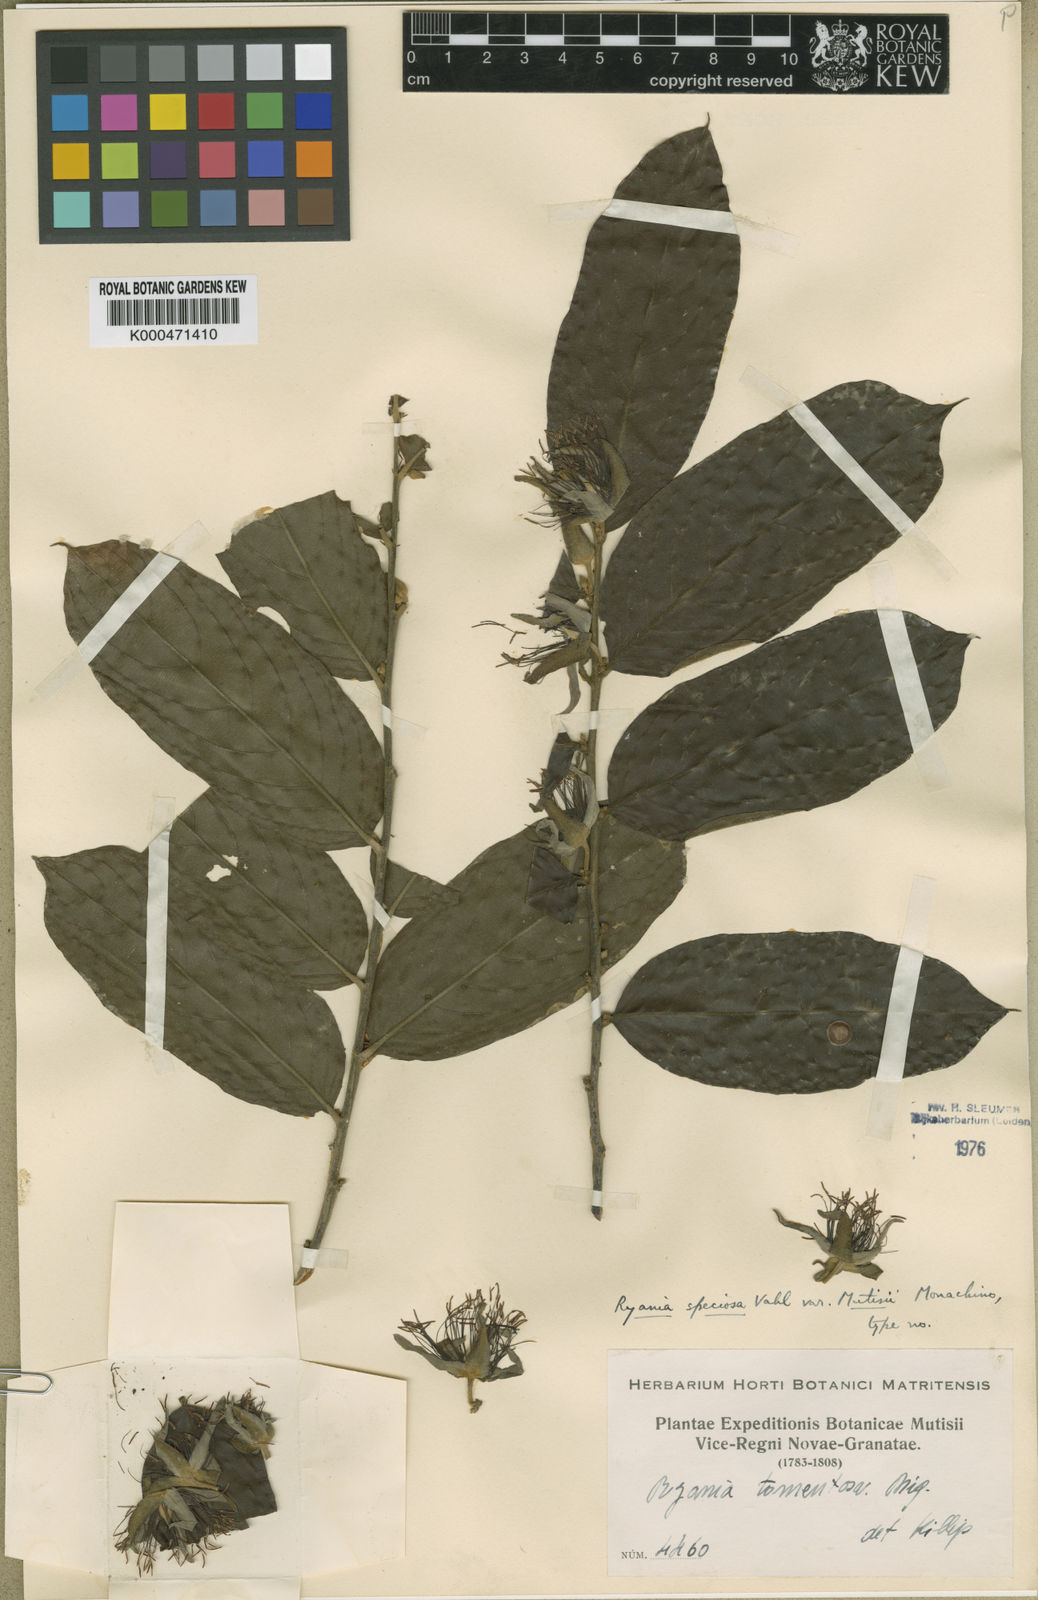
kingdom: Plantae
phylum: Tracheophyta
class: Magnoliopsida
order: Malpighiales
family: Salicaceae
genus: Ryania
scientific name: Ryania speciosa
